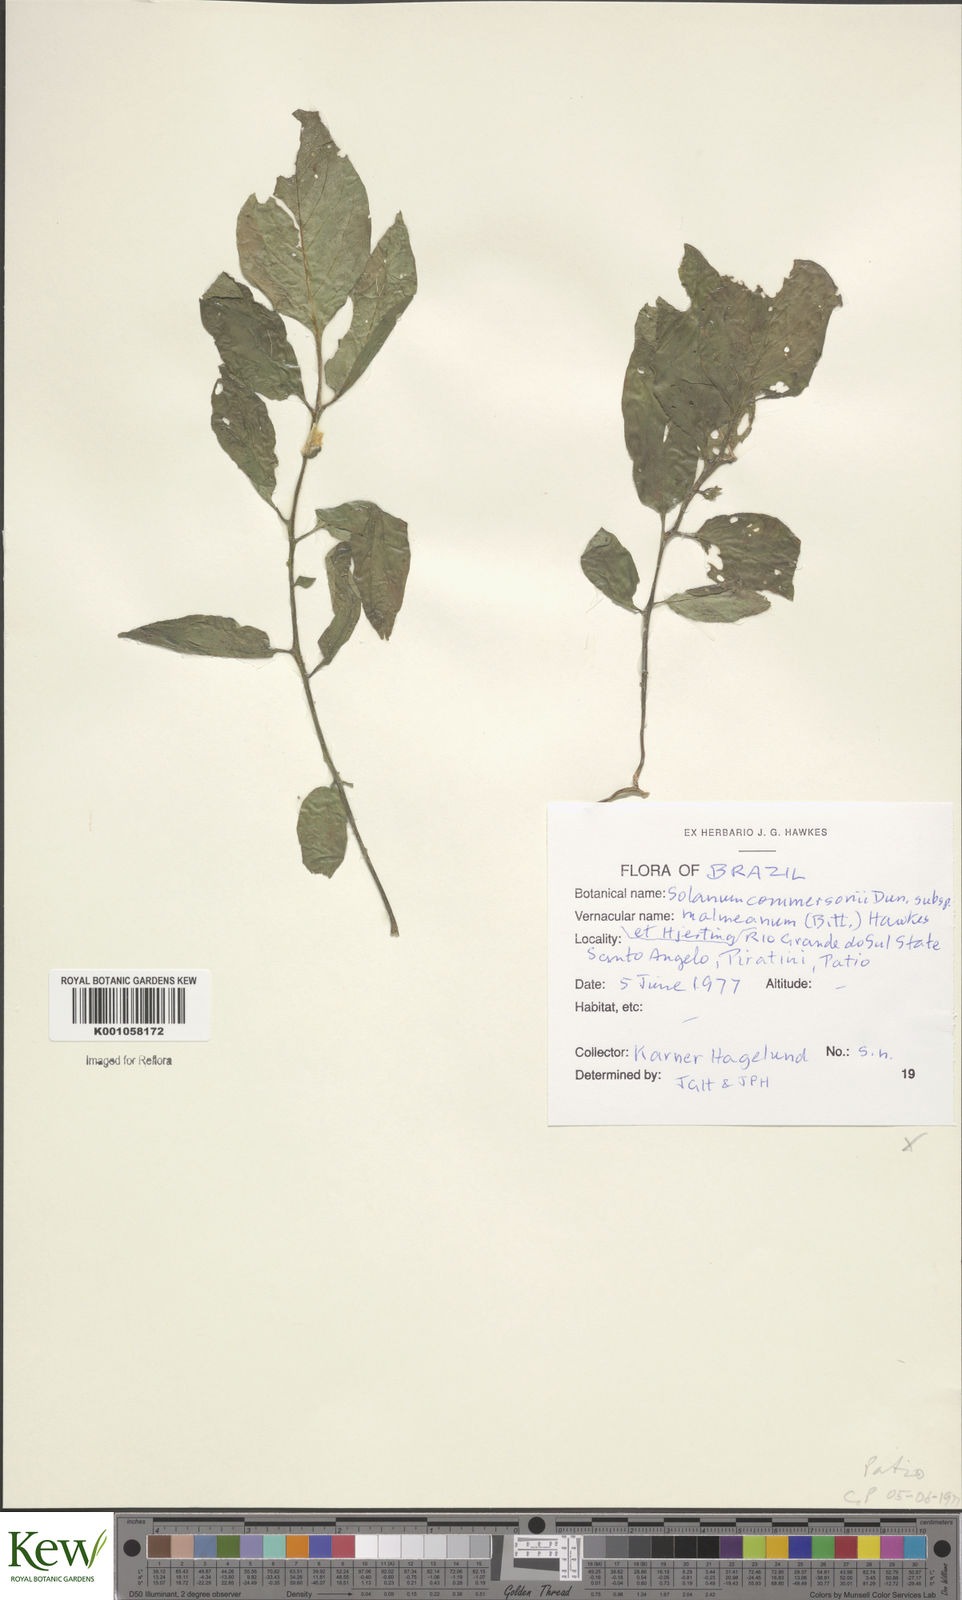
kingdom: Plantae
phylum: Tracheophyta
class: Magnoliopsida
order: Solanales
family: Solanaceae
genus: Solanum
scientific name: Solanum malmeanum
